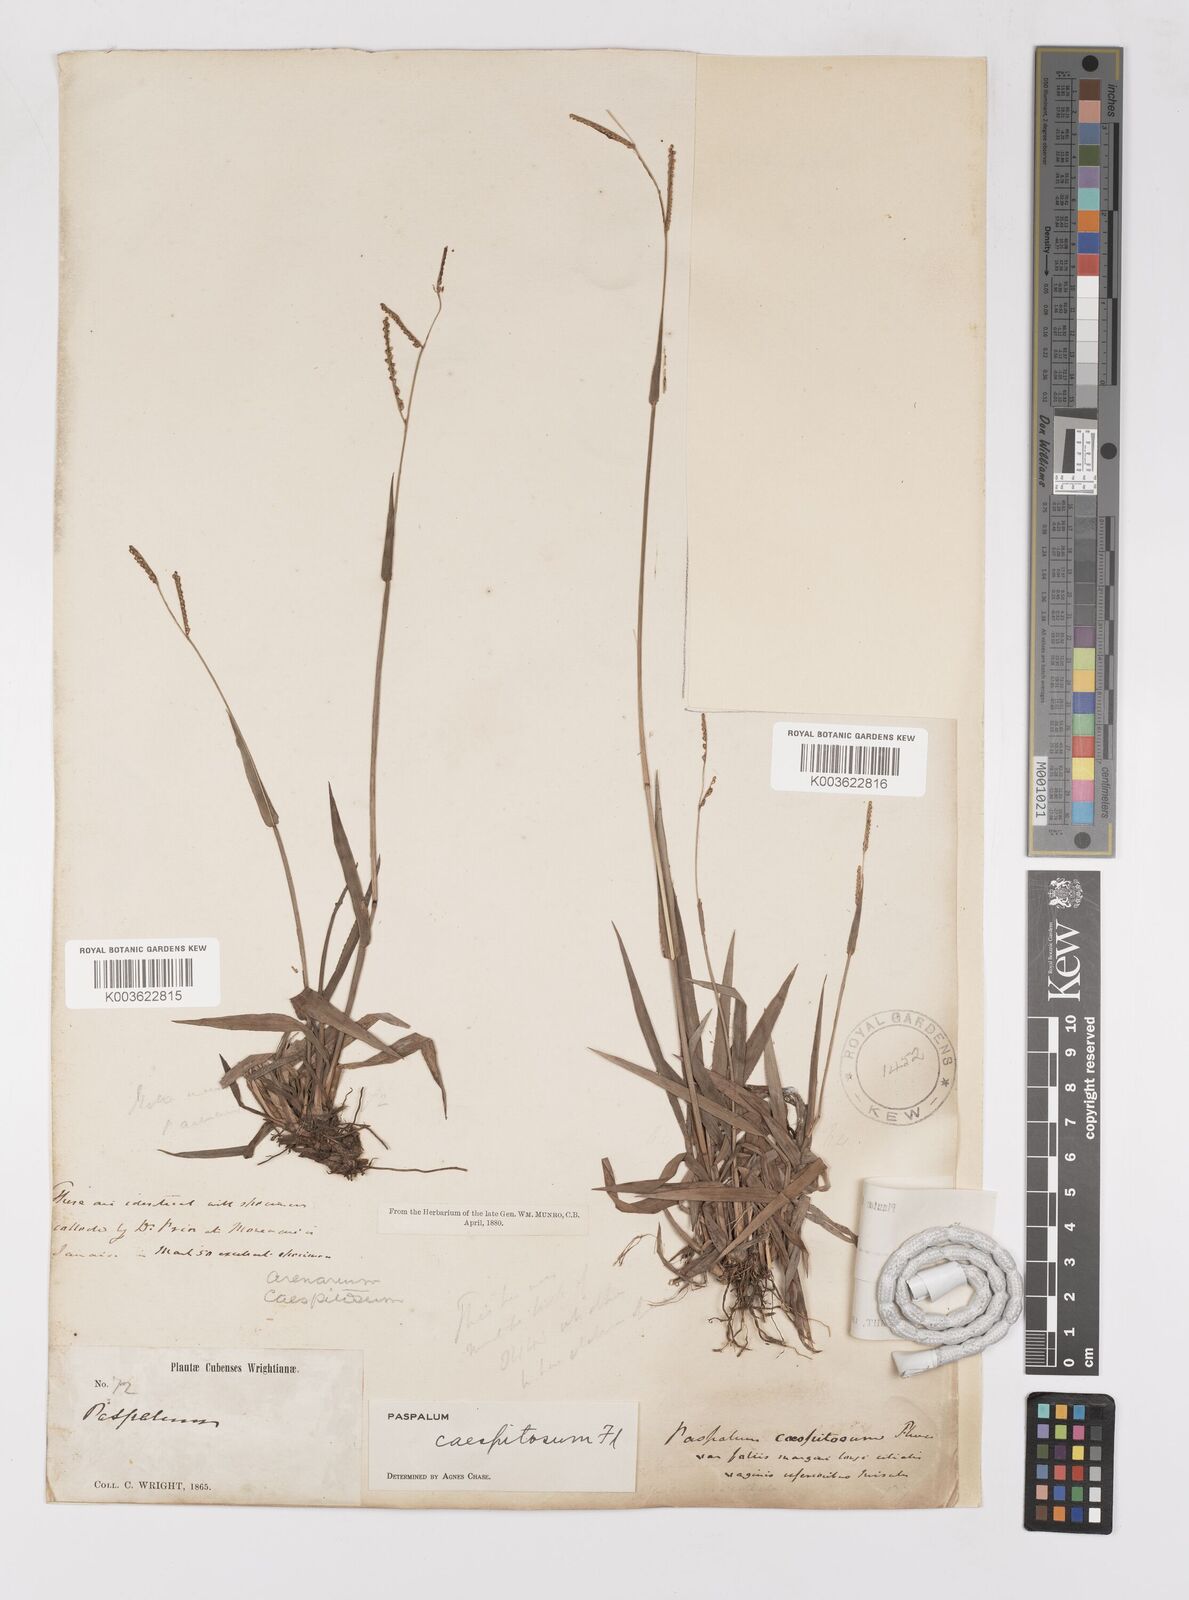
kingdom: Plantae
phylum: Tracheophyta
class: Liliopsida
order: Poales
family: Poaceae
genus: Paspalum
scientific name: Paspalum caespitosum
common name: Blue crowngrass
